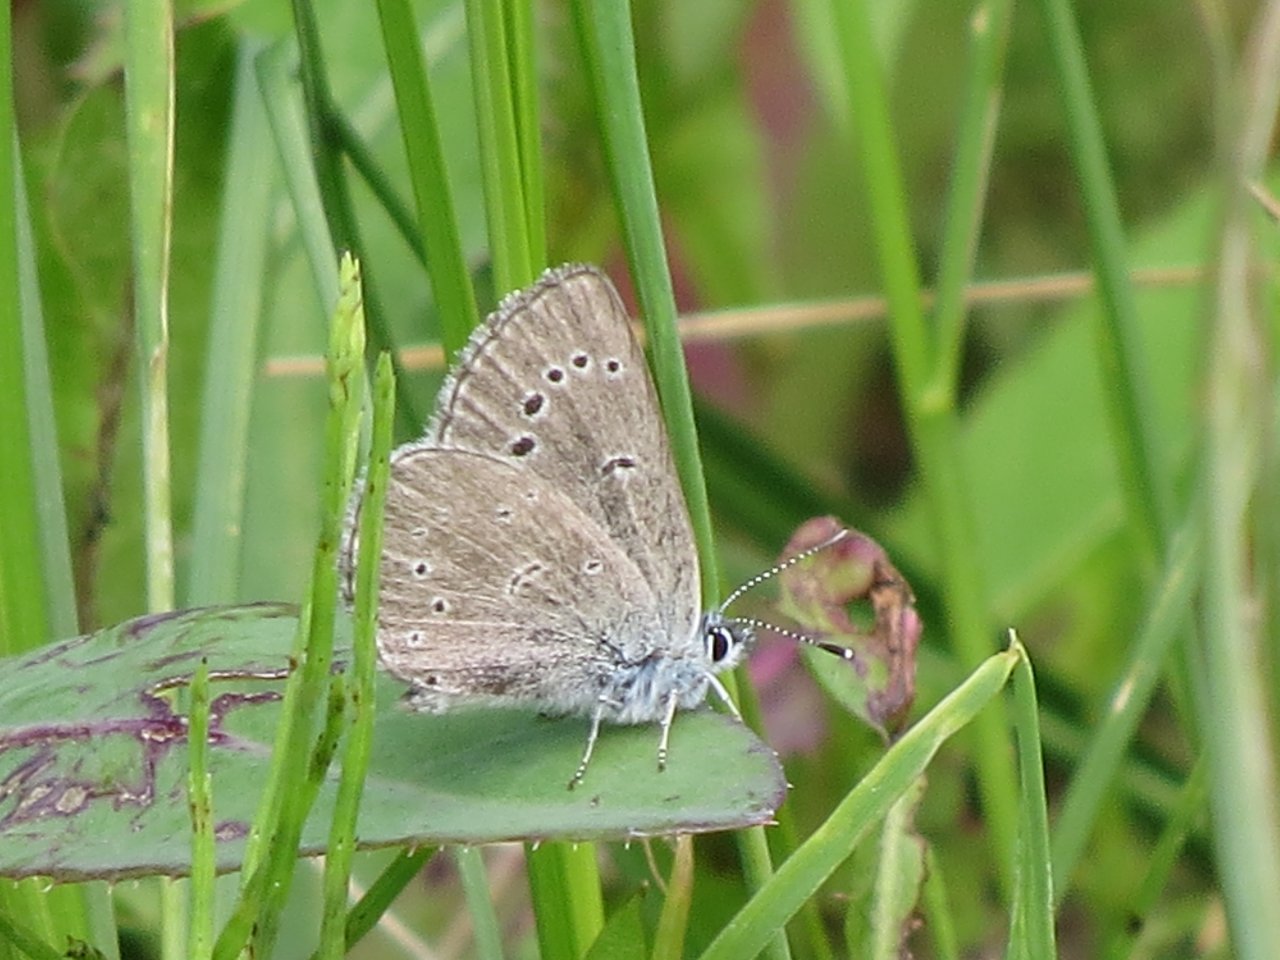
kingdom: Animalia
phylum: Arthropoda
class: Insecta
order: Lepidoptera
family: Lycaenidae
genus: Glaucopsyche
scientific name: Glaucopsyche lygdamus
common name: Silvery Blue
